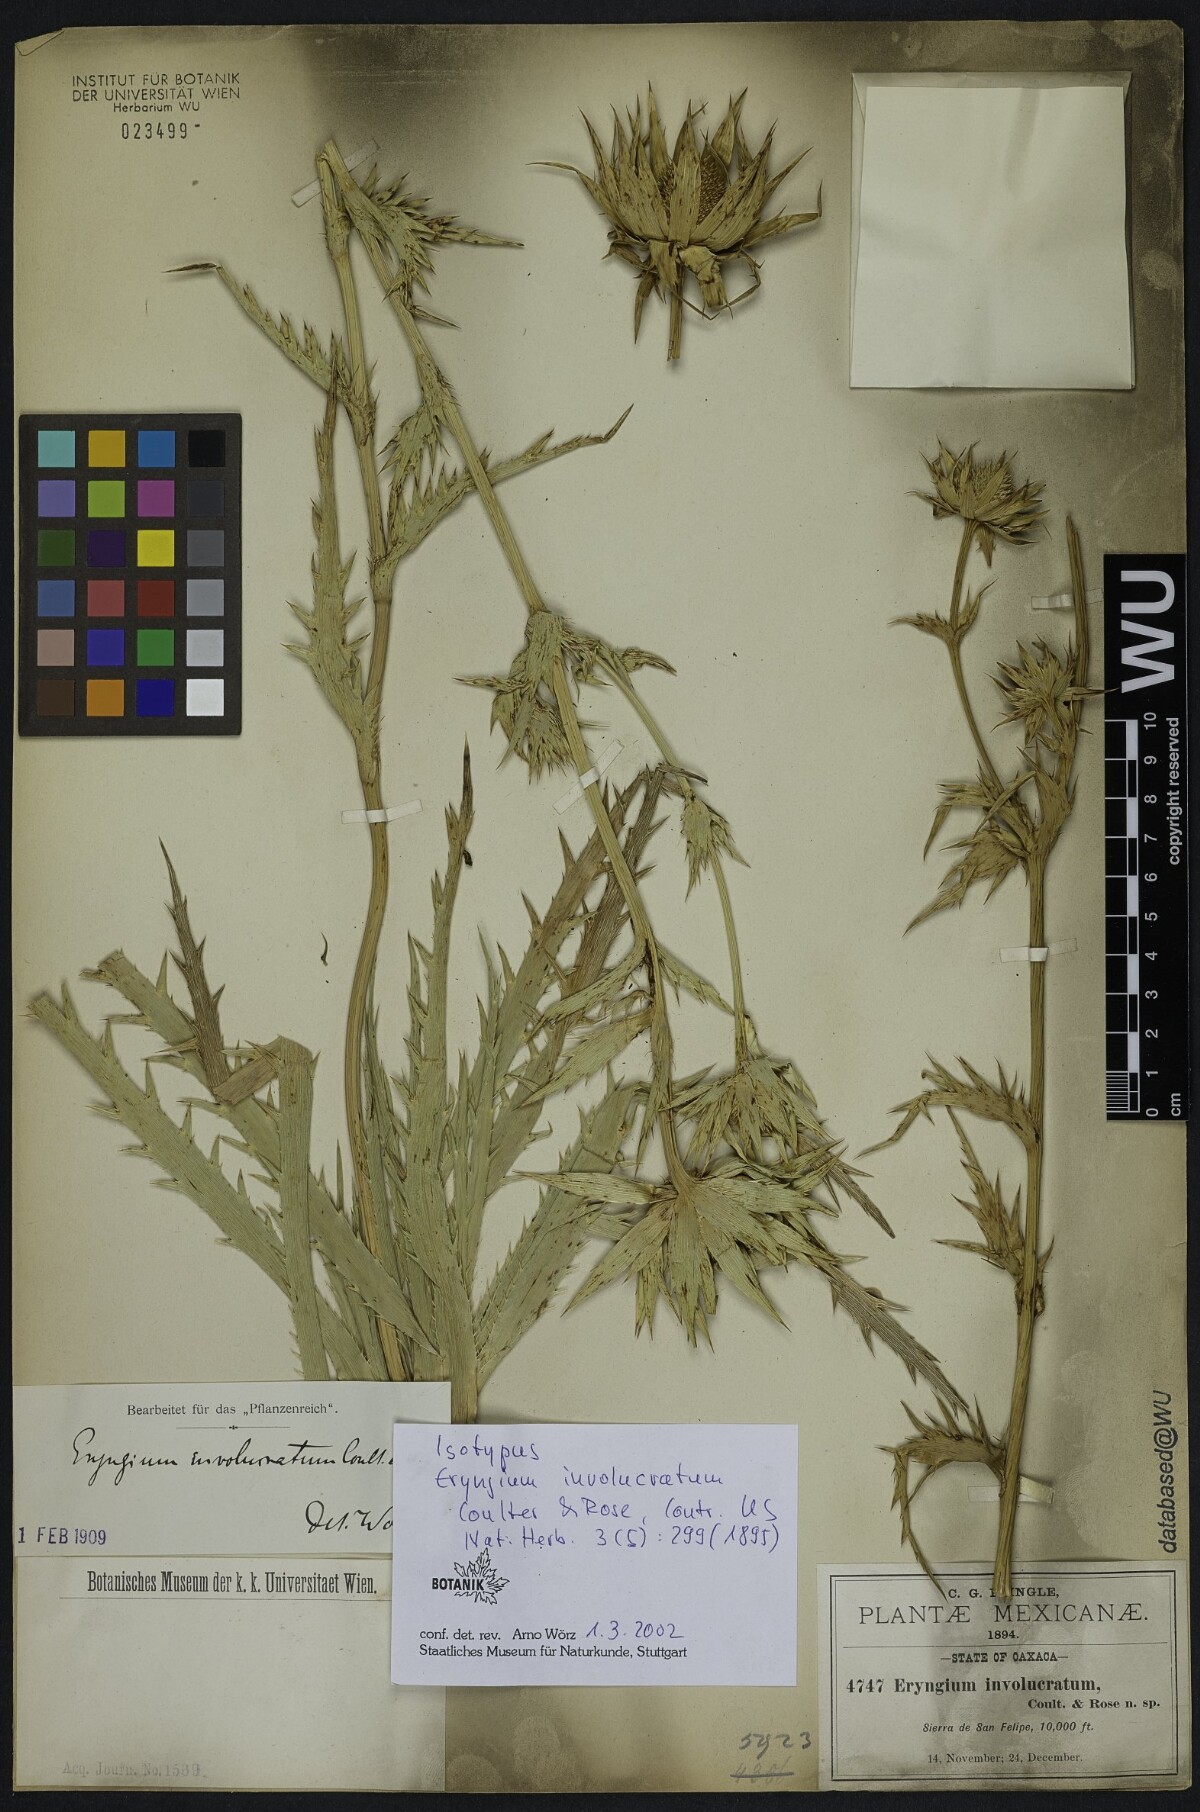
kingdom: Plantae
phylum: Tracheophyta
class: Magnoliopsida
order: Apiales
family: Apiaceae
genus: Eryngium
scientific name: Eryngium monocephalum
